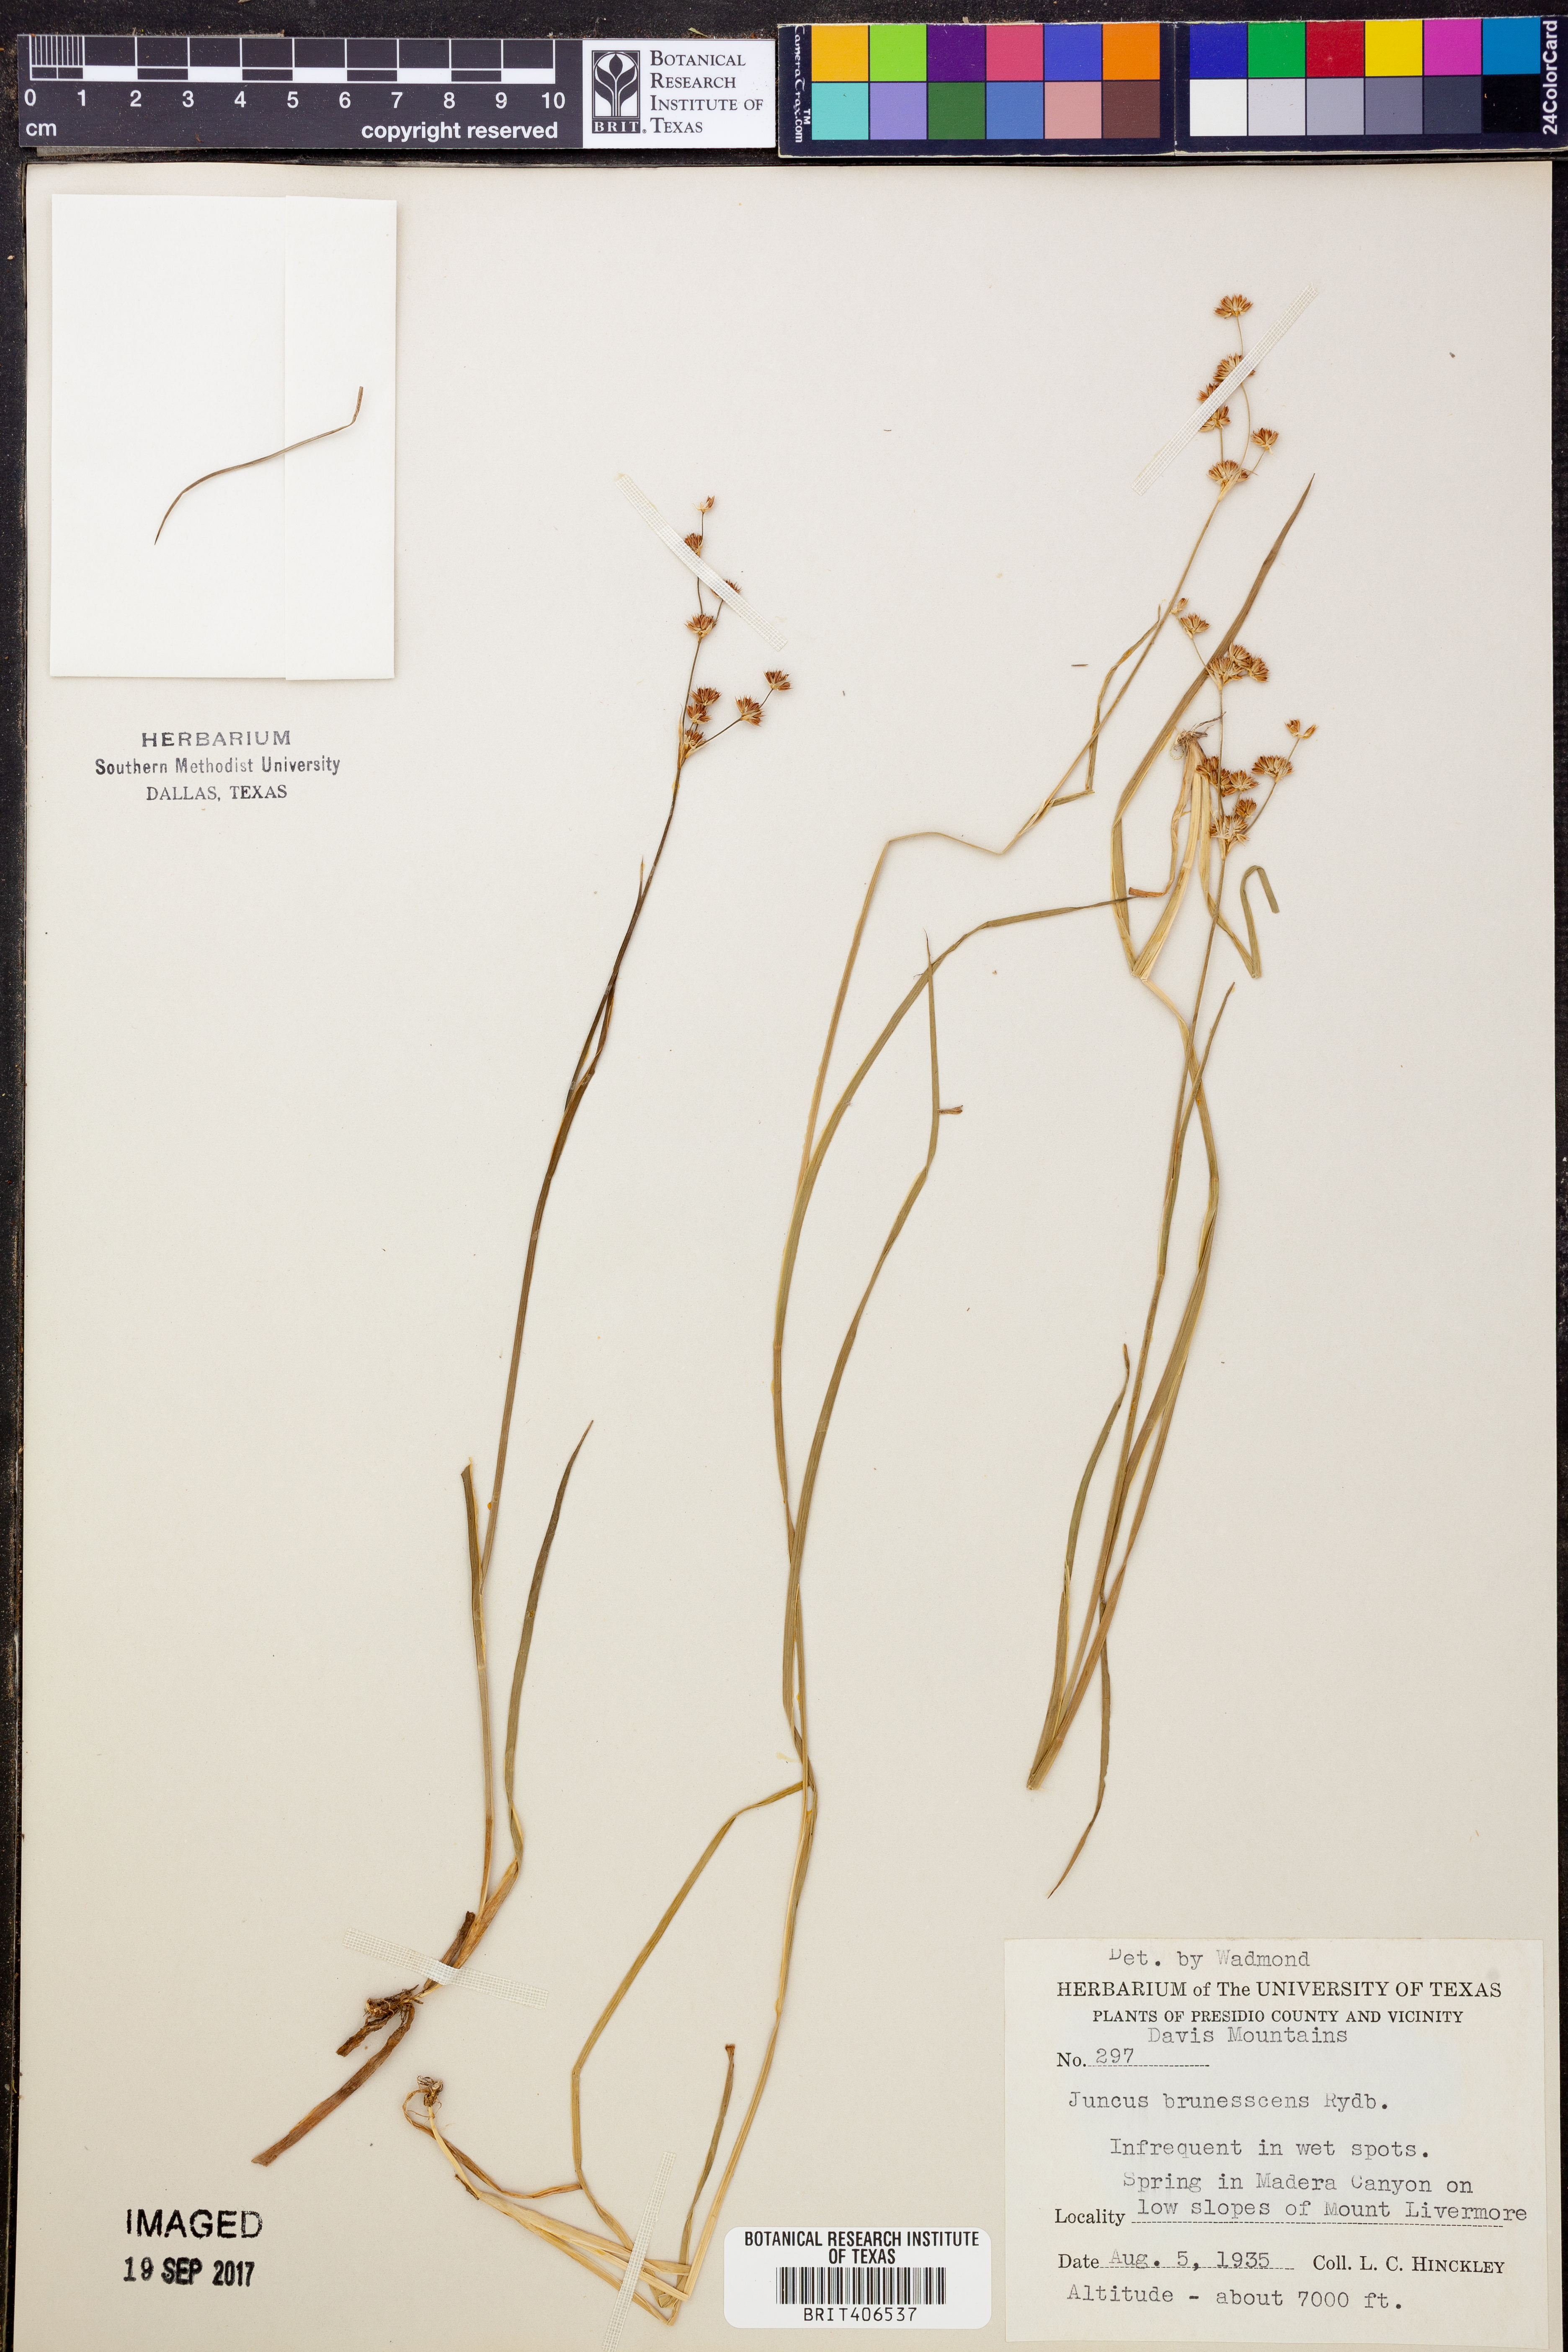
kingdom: Plantae
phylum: Tracheophyta
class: Liliopsida
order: Poales
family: Juncaceae
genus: Juncus
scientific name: Juncus saximontanus
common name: Rocky mountain rush
